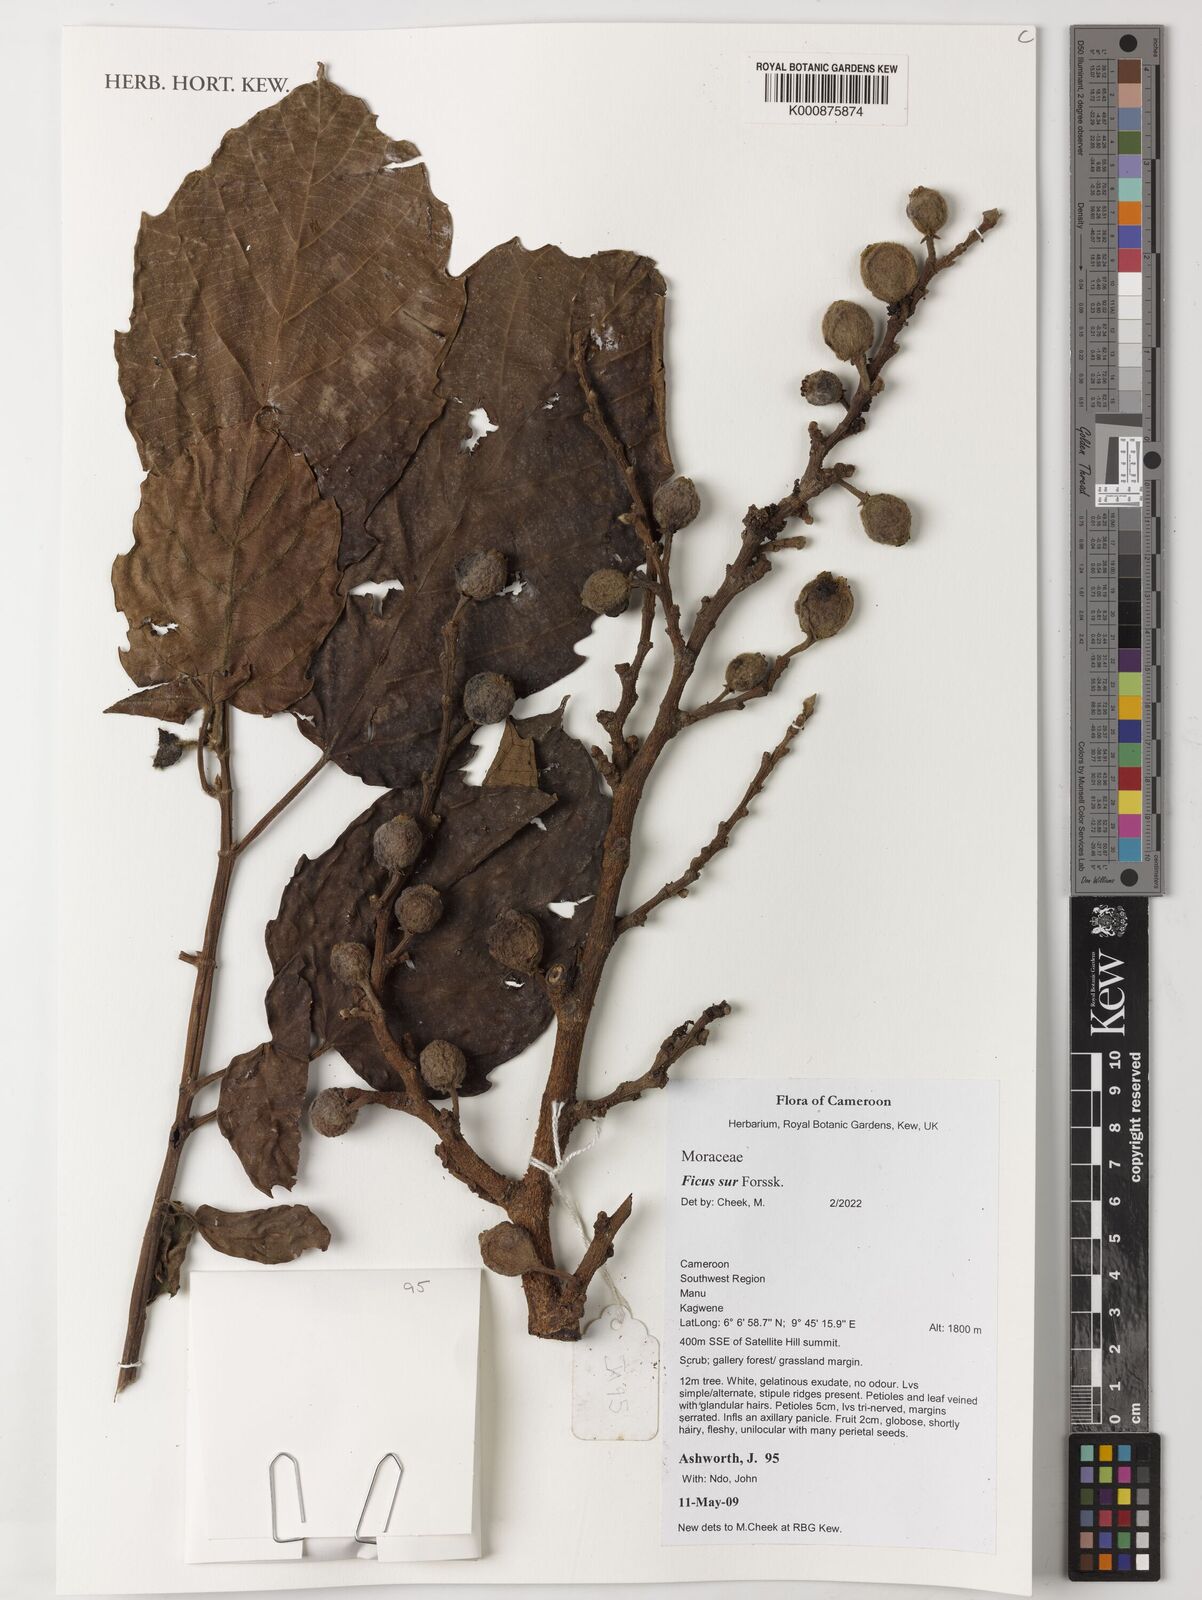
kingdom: Plantae
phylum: Tracheophyta
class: Magnoliopsida
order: Rosales
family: Moraceae
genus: Ficus
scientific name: Ficus sur
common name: Cape fig
